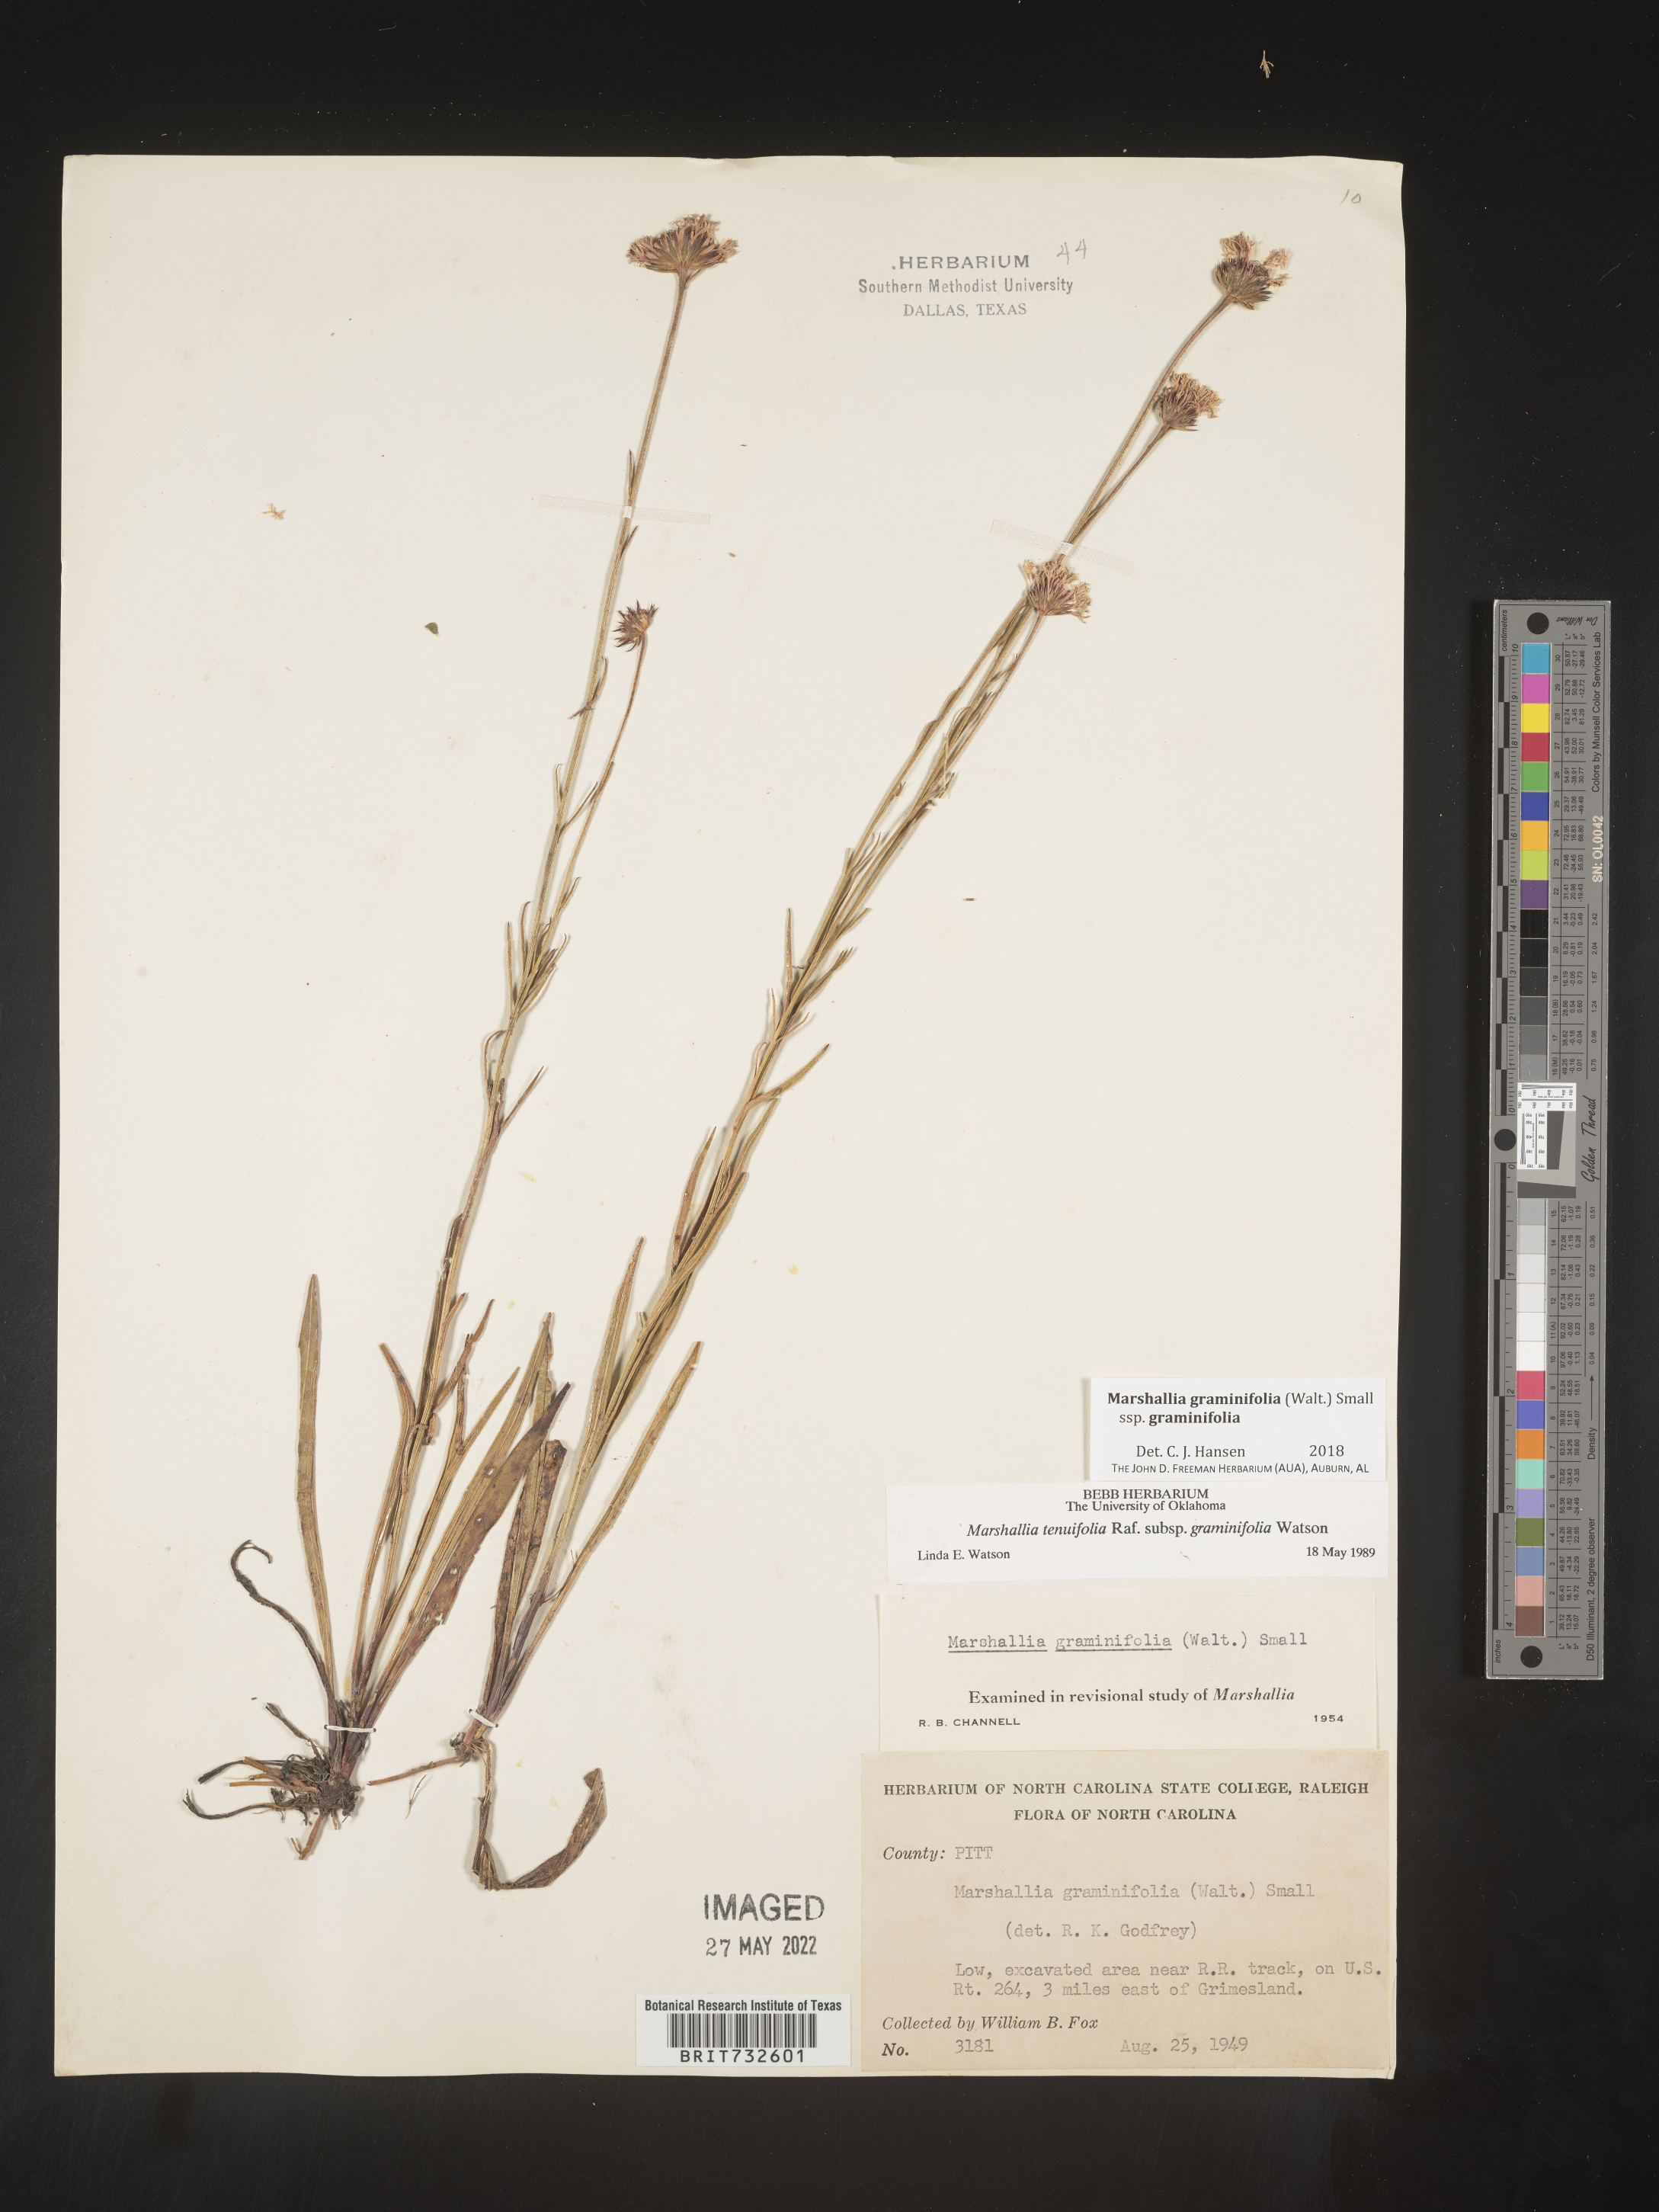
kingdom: Plantae
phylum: Tracheophyta
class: Magnoliopsida
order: Asterales
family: Asteraceae
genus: Marshallia
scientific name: Marshallia graminifolia
